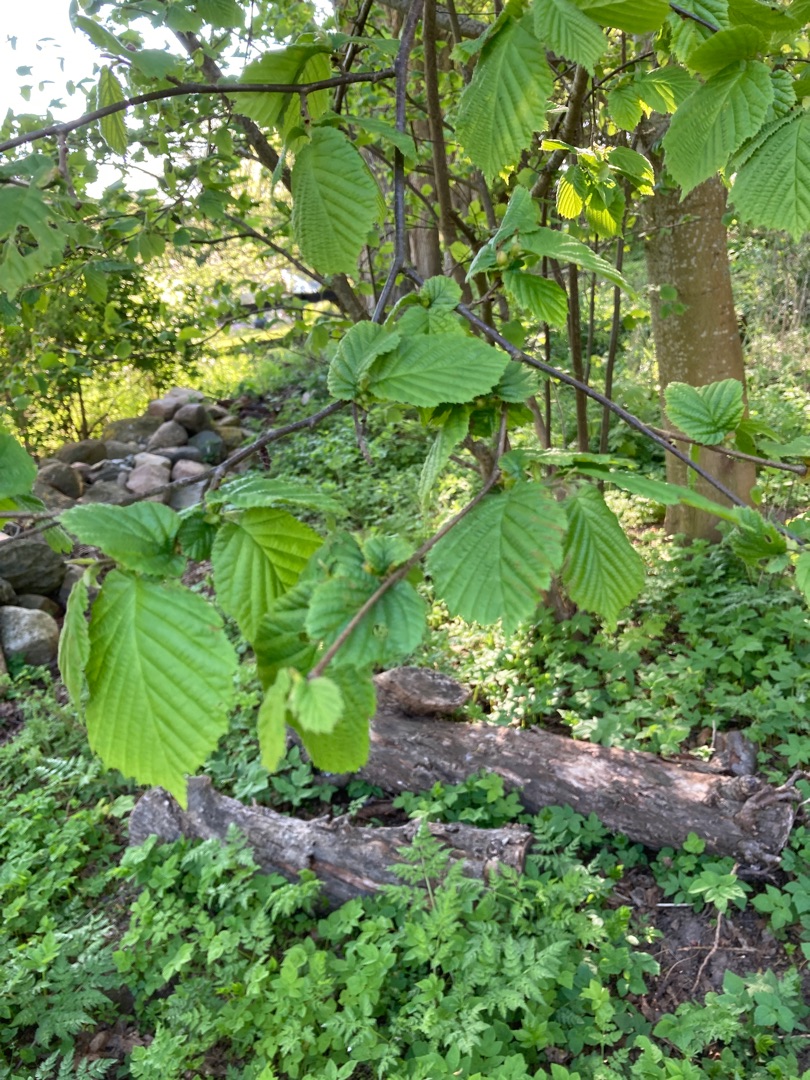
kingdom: Plantae
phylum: Tracheophyta
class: Magnoliopsida
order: Fagales
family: Betulaceae
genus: Corylus
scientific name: Corylus avellana
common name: Hassel
